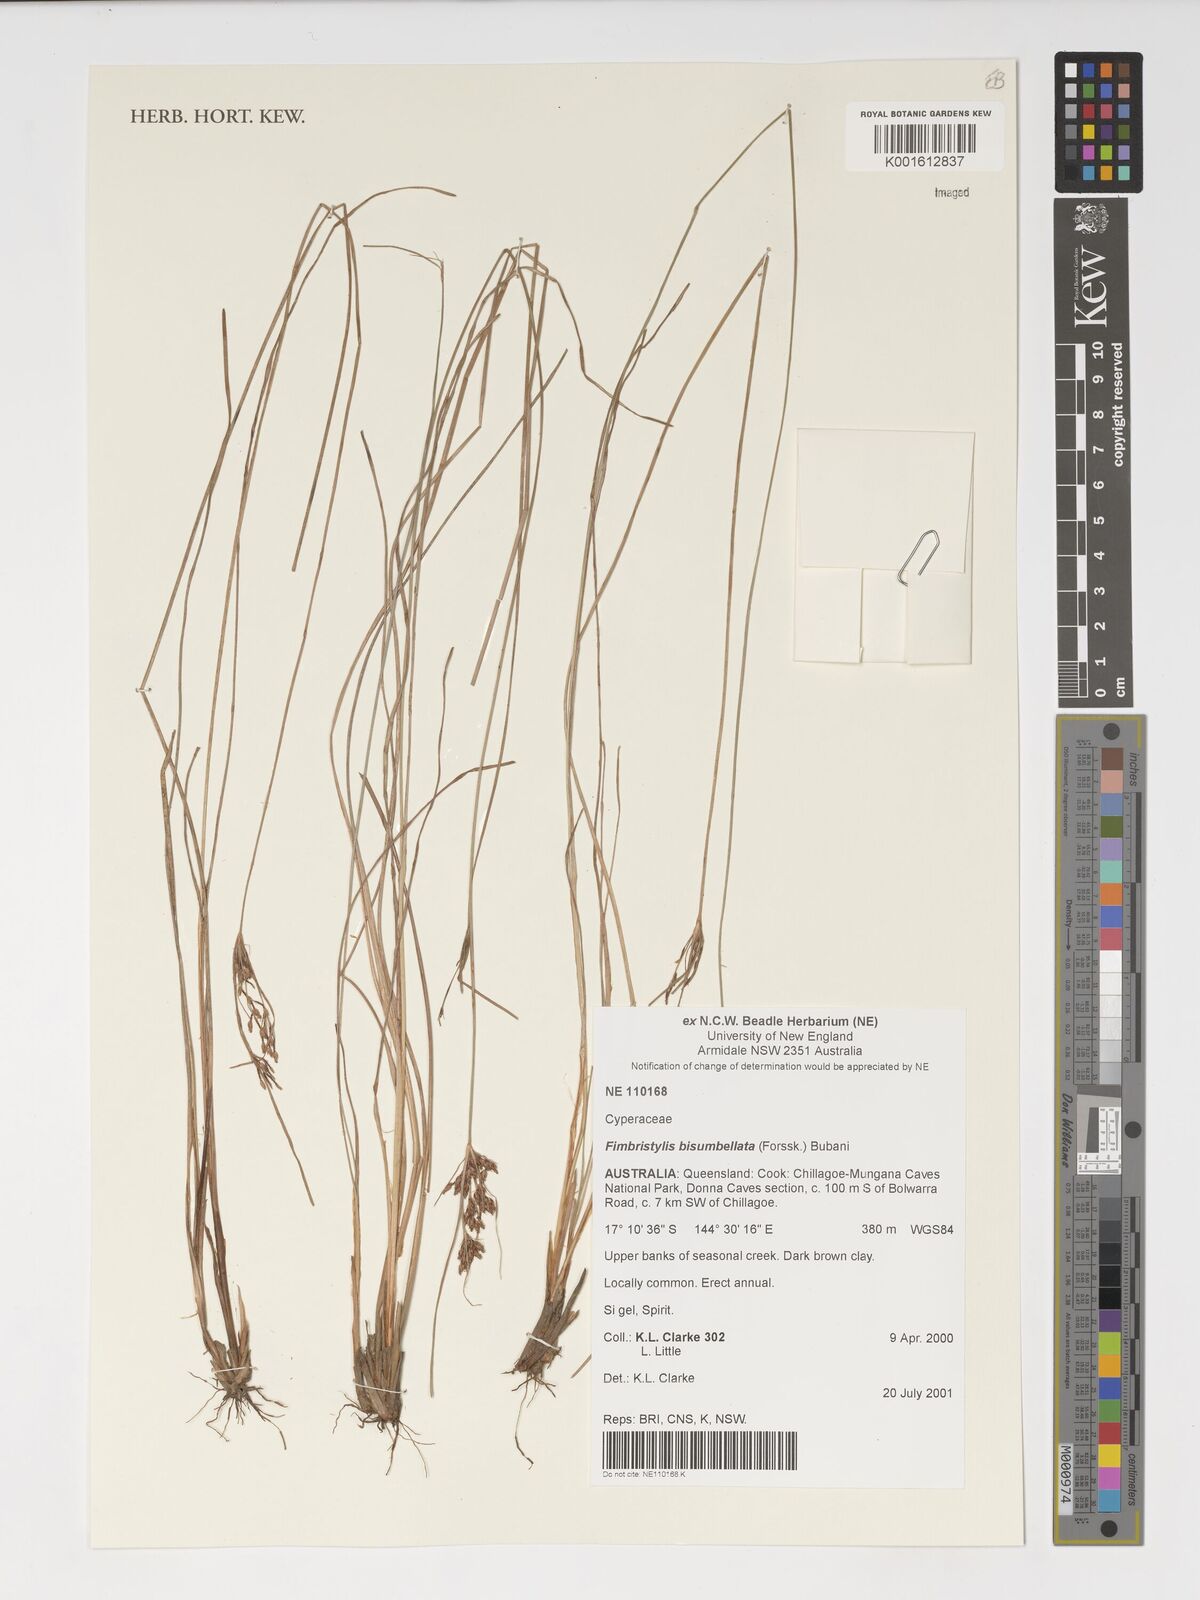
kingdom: Plantae
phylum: Tracheophyta
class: Liliopsida
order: Poales
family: Cyperaceae
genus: Fimbristylis
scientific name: Fimbristylis bisumbellata
